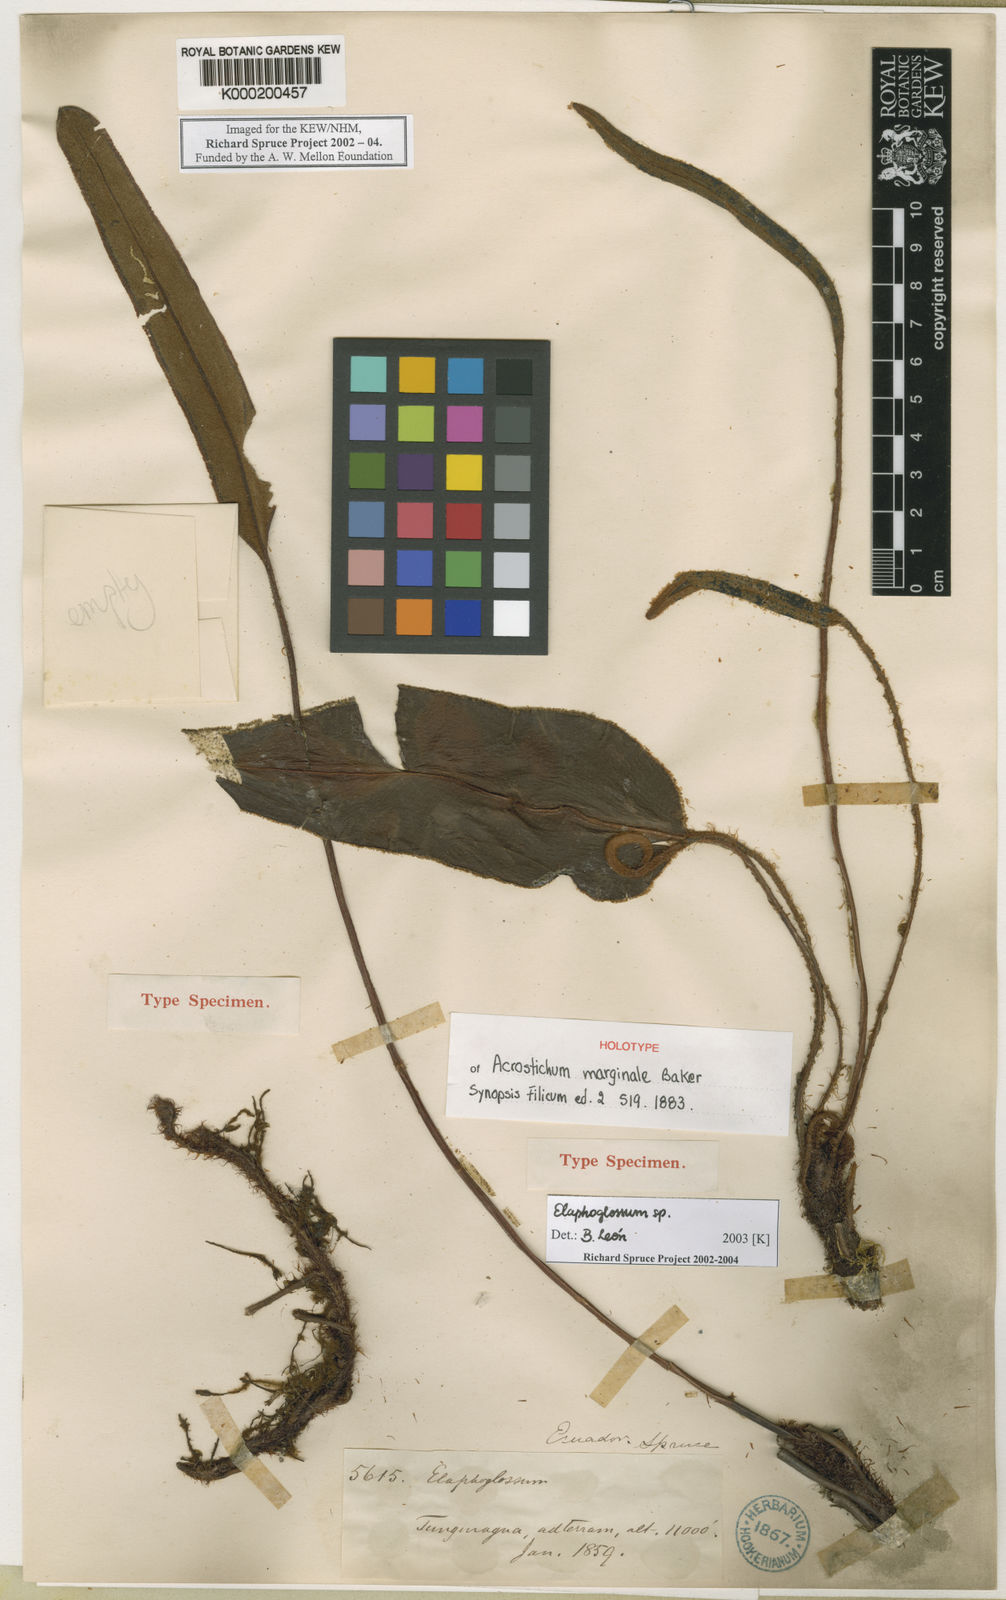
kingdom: Plantae
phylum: Tracheophyta
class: Polypodiopsida
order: Polypodiales
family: Dryopteridaceae
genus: Elaphoglossum
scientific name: Elaphoglossum marginale
